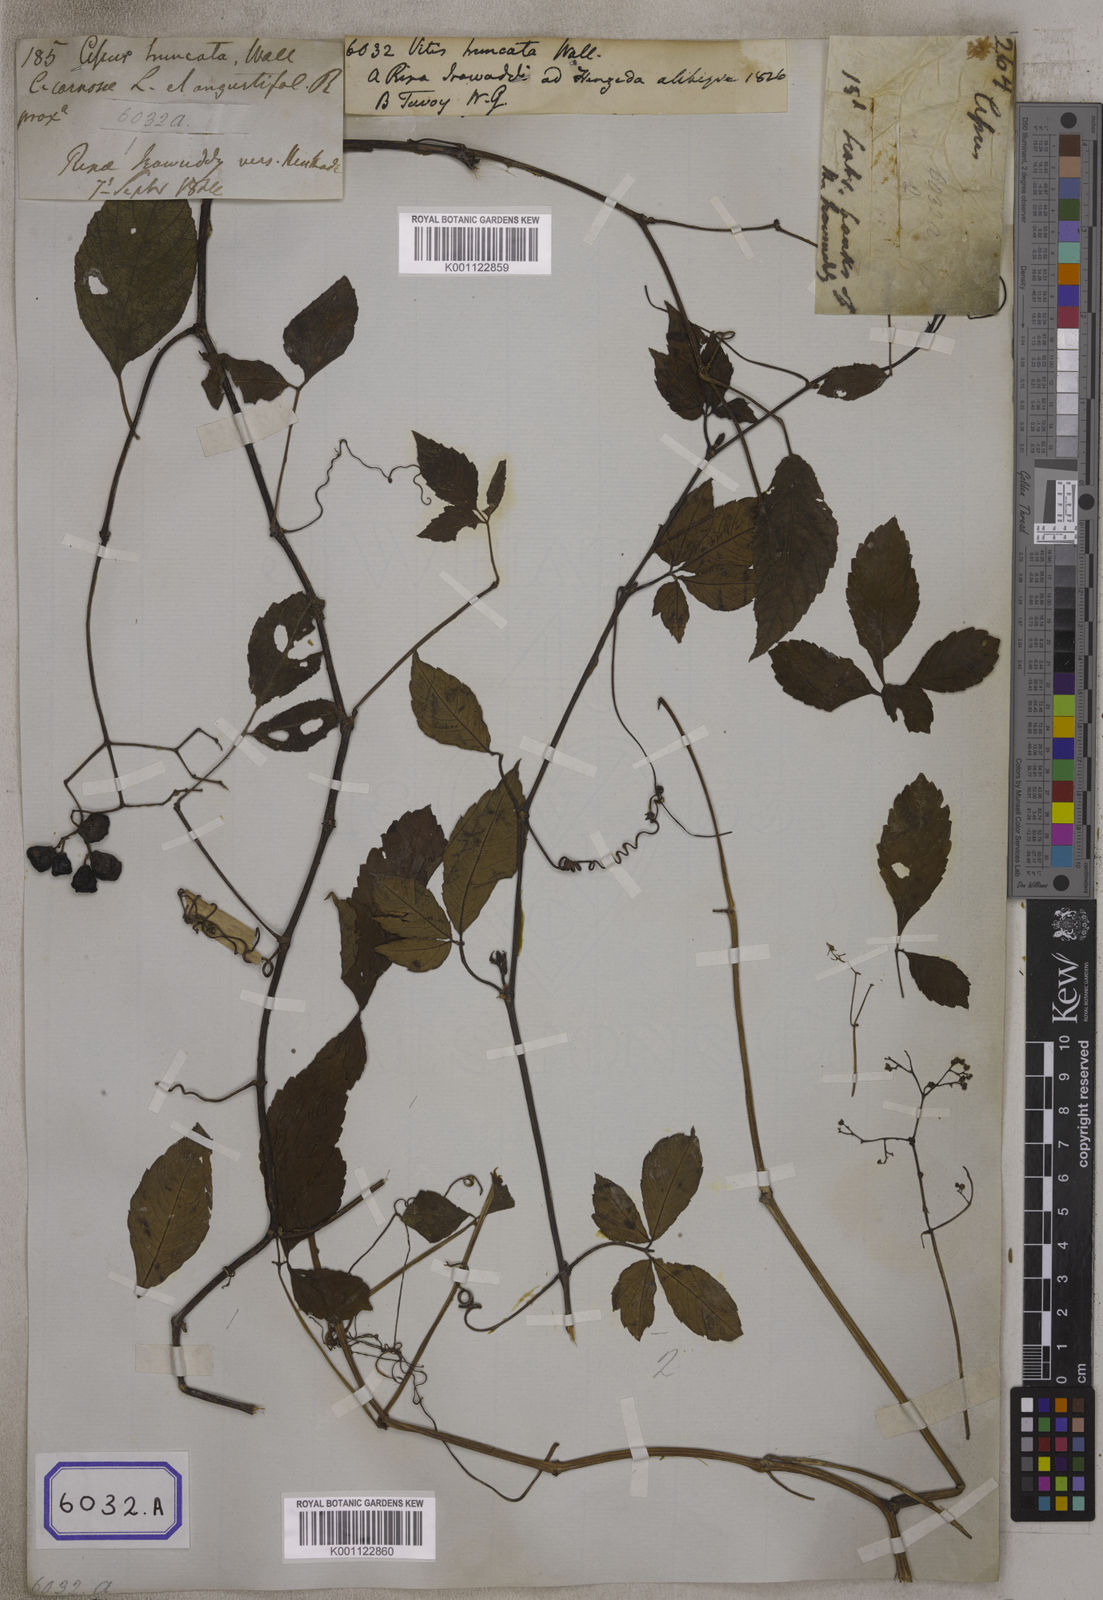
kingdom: Plantae
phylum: Tracheophyta
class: Magnoliopsida
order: Vitales
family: Vitaceae
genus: Causonis
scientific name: Causonis japonica
